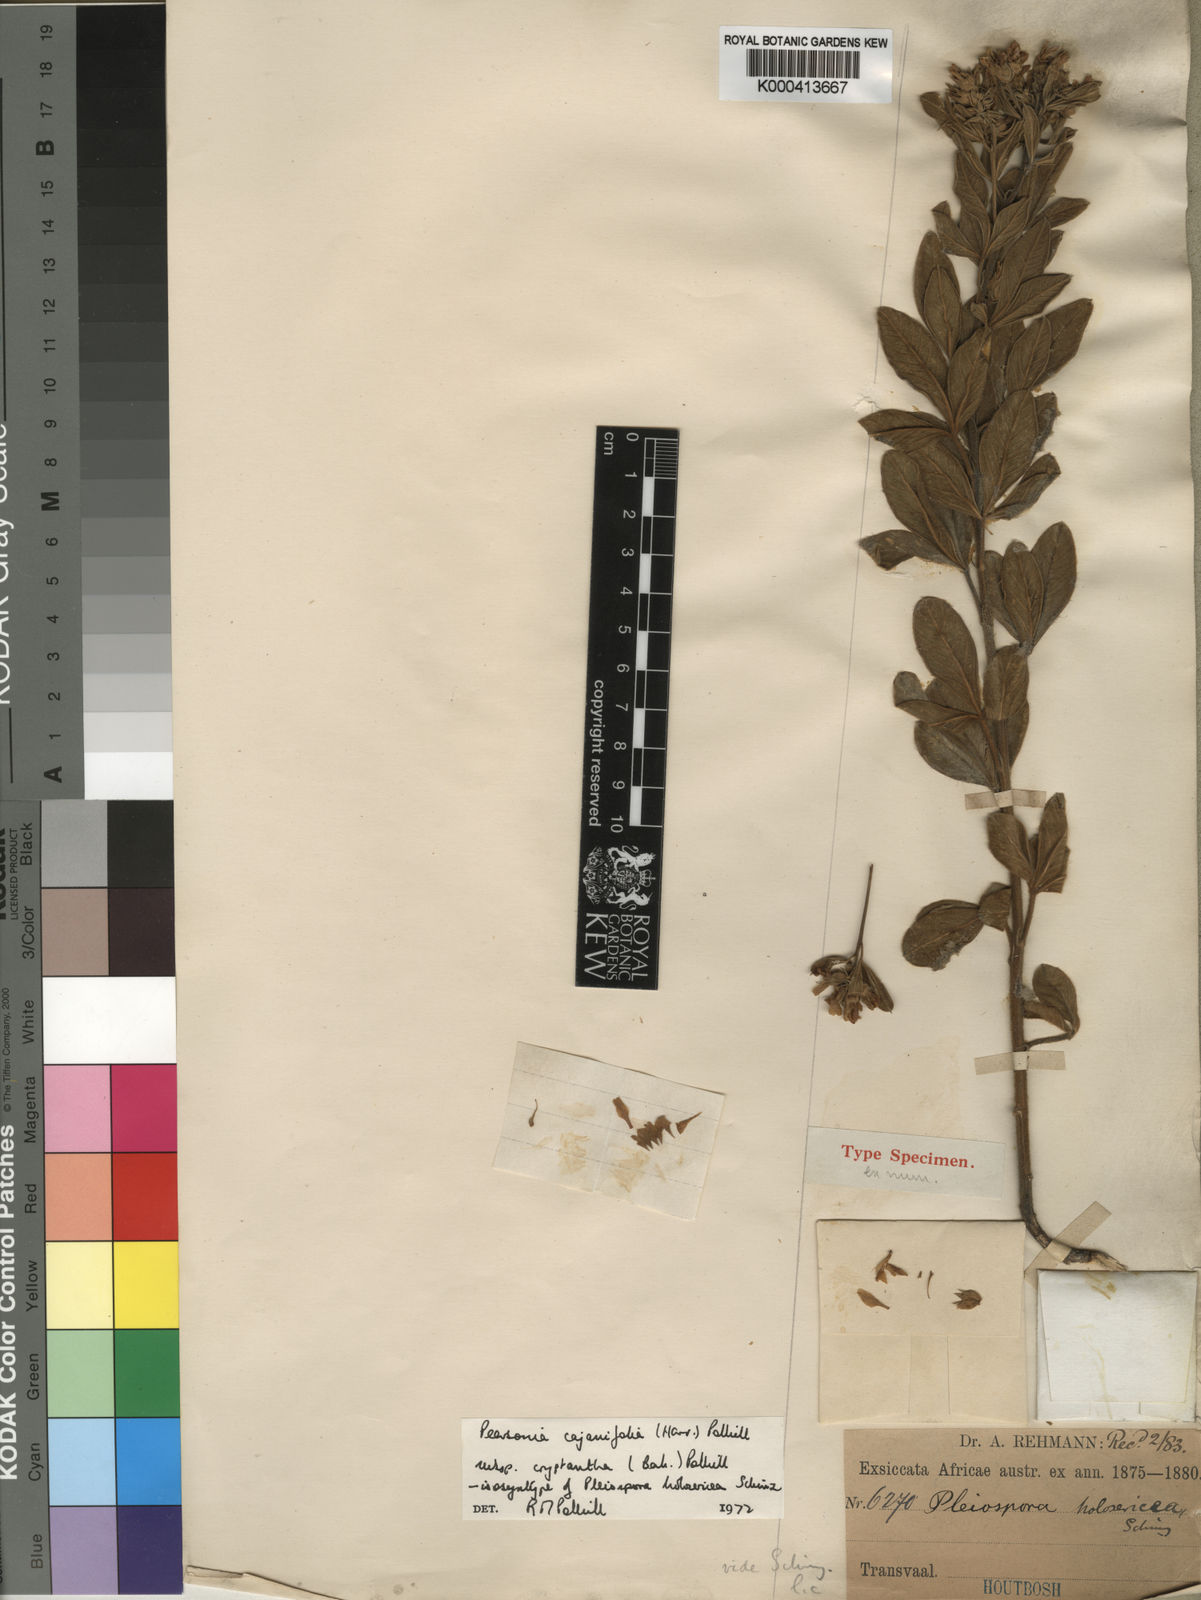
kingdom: Plantae
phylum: Tracheophyta
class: Magnoliopsida
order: Fabales
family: Fabaceae
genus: Pearsonia
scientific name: Pearsonia cajanifolia
